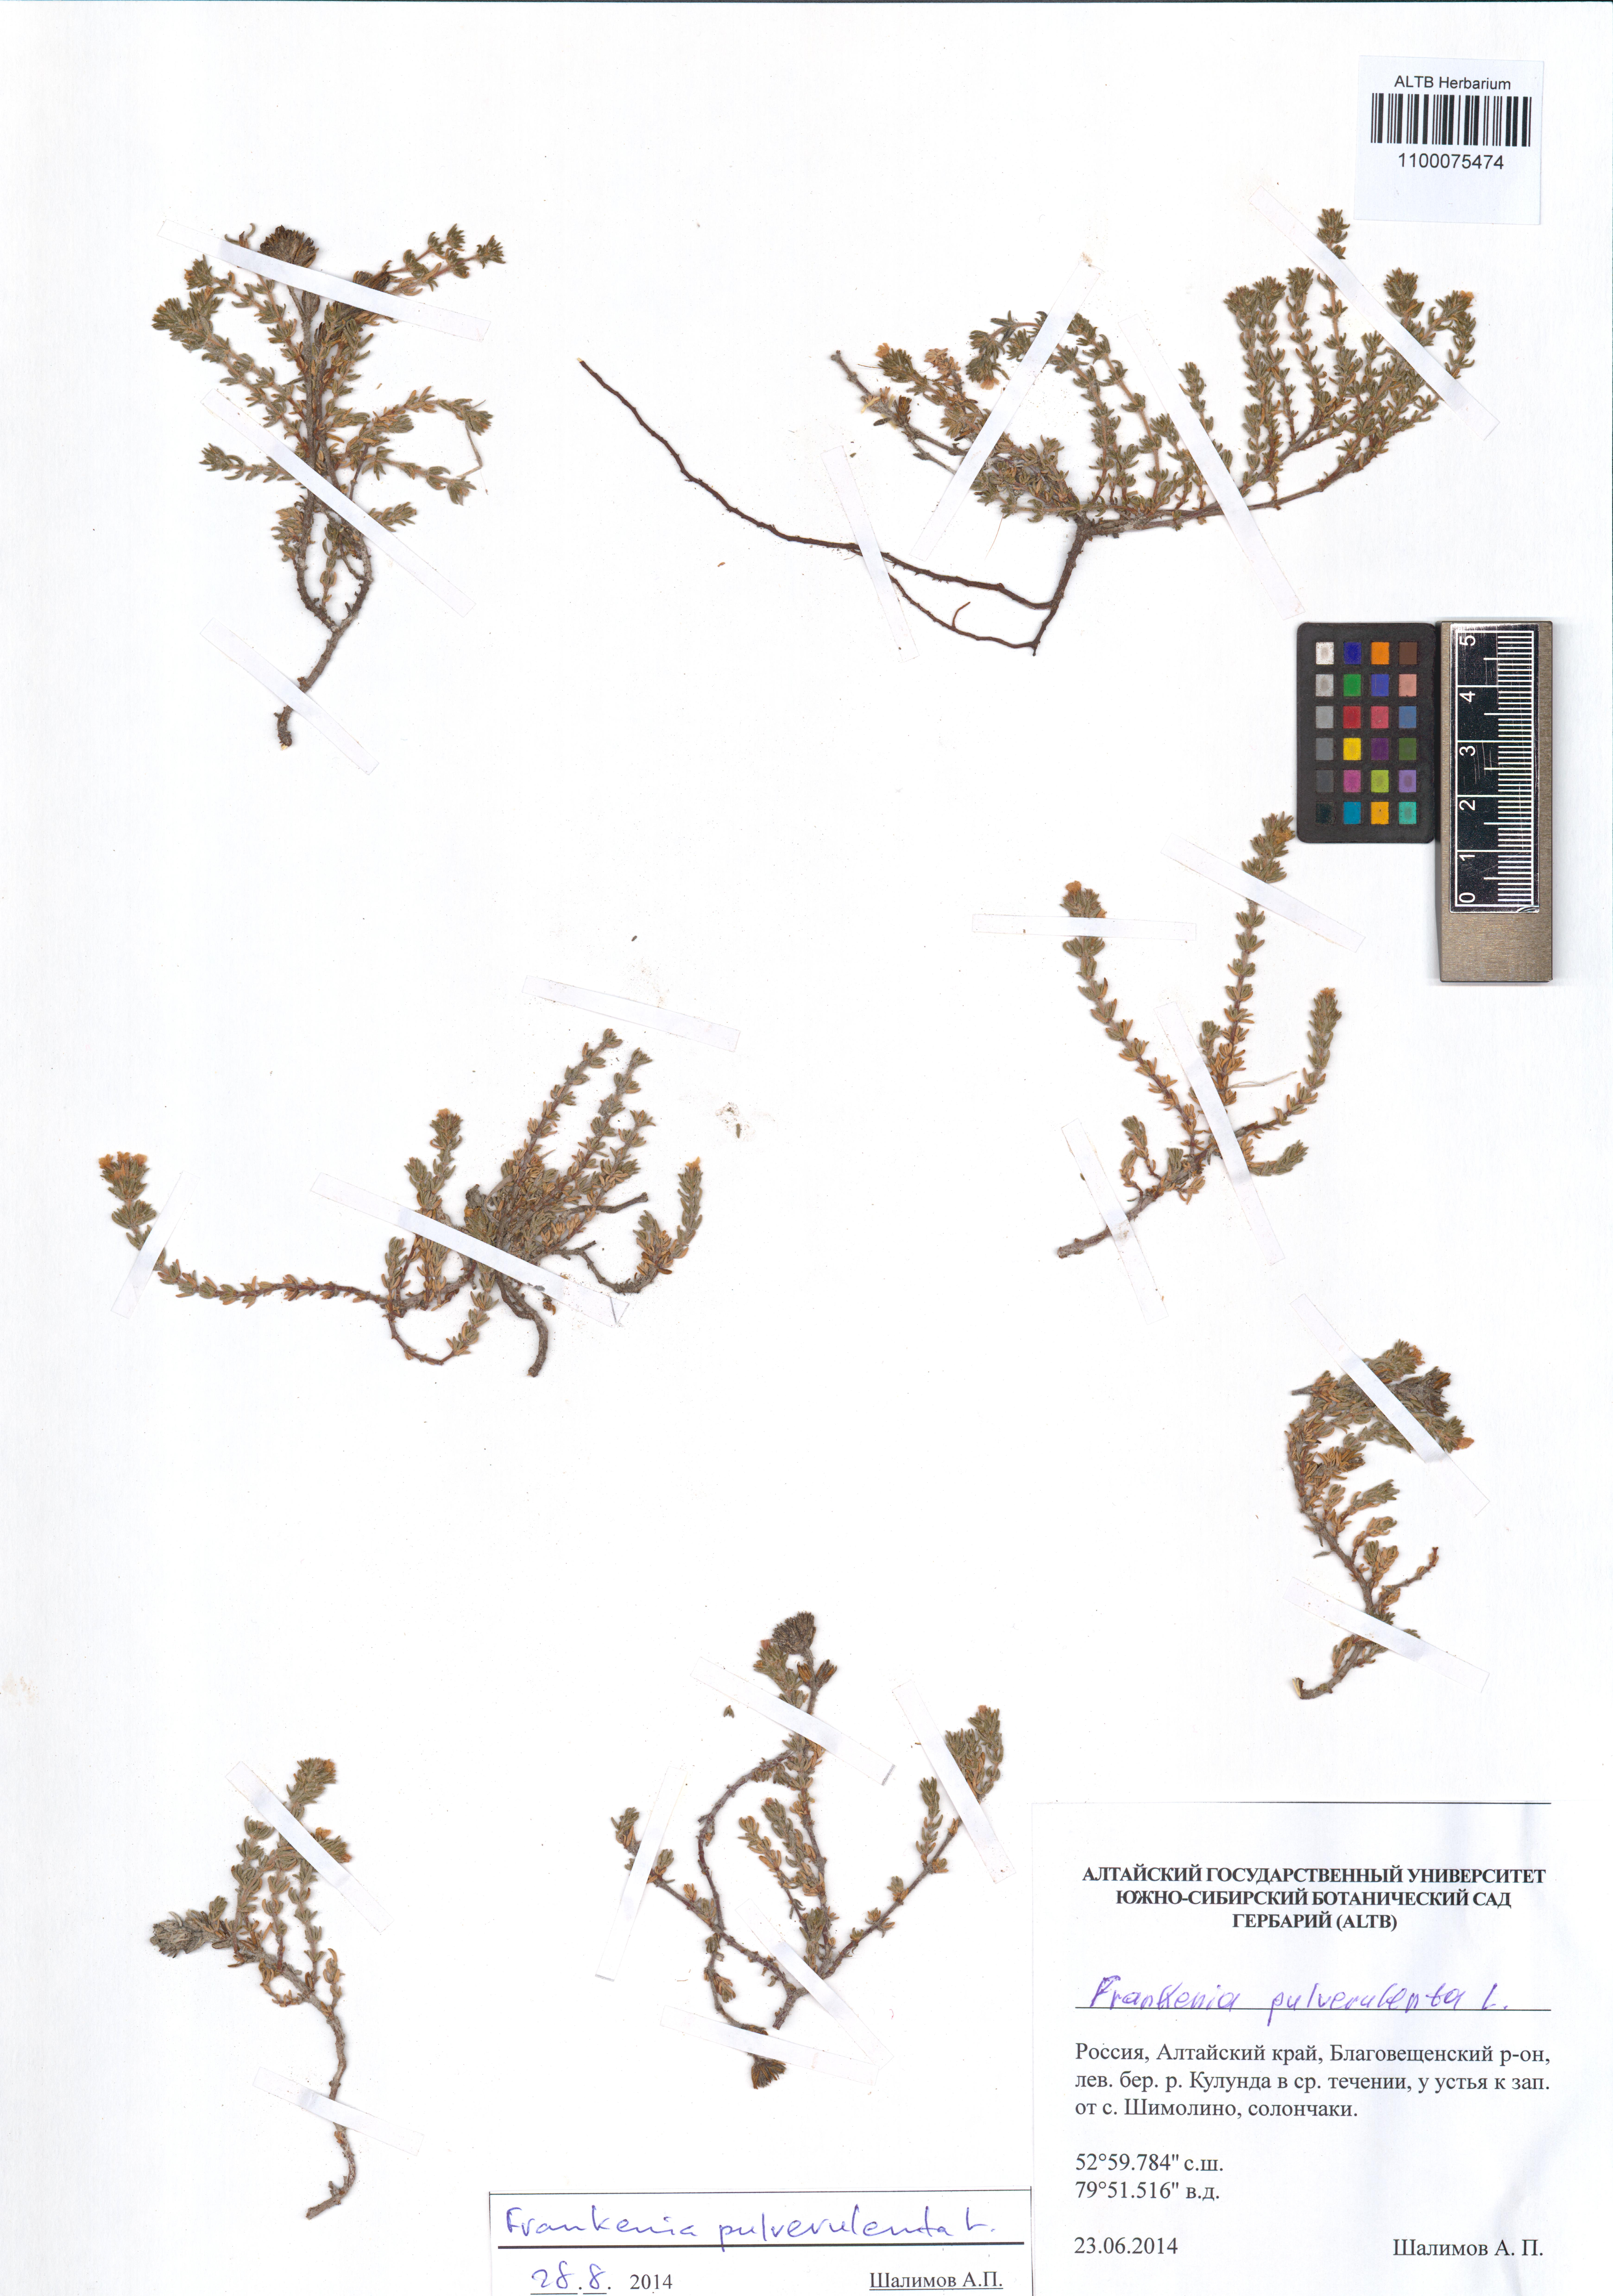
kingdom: Plantae
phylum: Tracheophyta
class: Magnoliopsida
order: Caryophyllales
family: Frankeniaceae
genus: Frankenia
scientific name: Frankenia pulverulenta
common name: European seaheath
